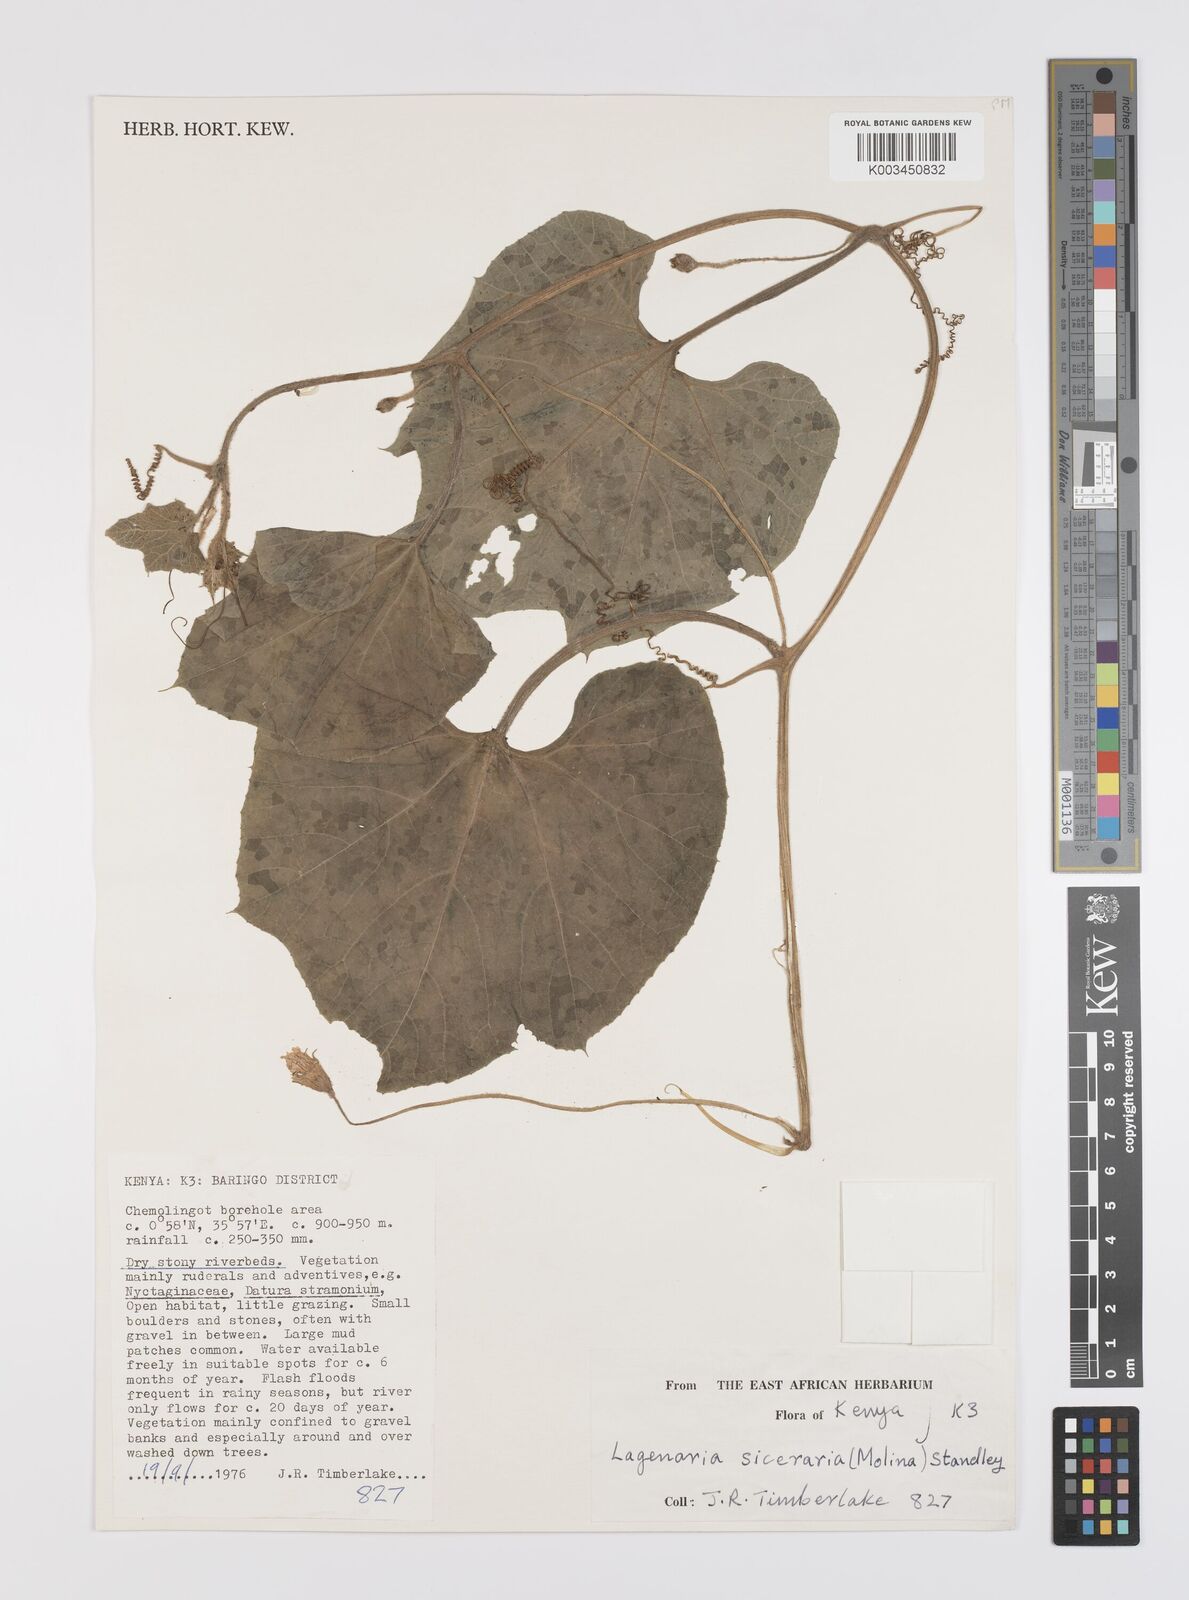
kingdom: Plantae
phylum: Tracheophyta
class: Magnoliopsida
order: Cucurbitales
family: Cucurbitaceae
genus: Lagenaria
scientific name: Lagenaria siceraria
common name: Bottle gourd
